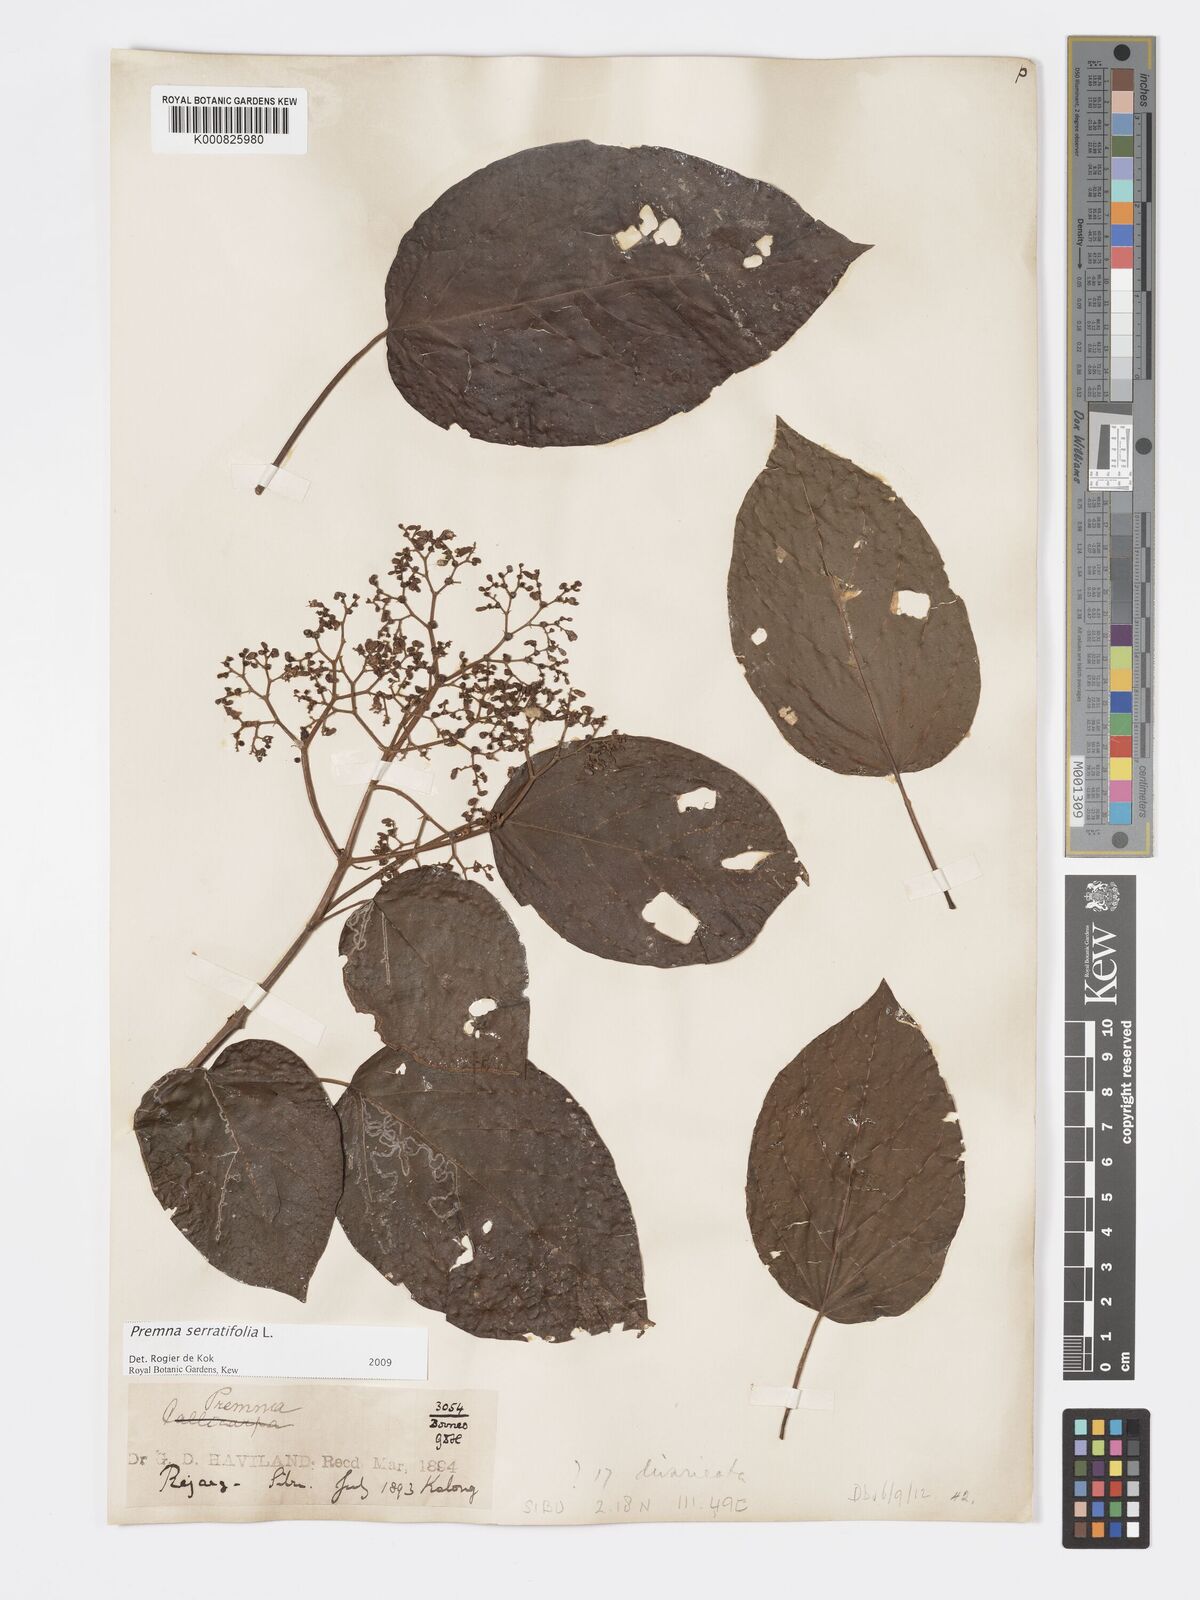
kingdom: Plantae
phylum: Tracheophyta
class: Magnoliopsida
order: Lamiales
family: Lamiaceae
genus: Premna
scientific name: Premna serratifolia
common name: Bastard guelder
